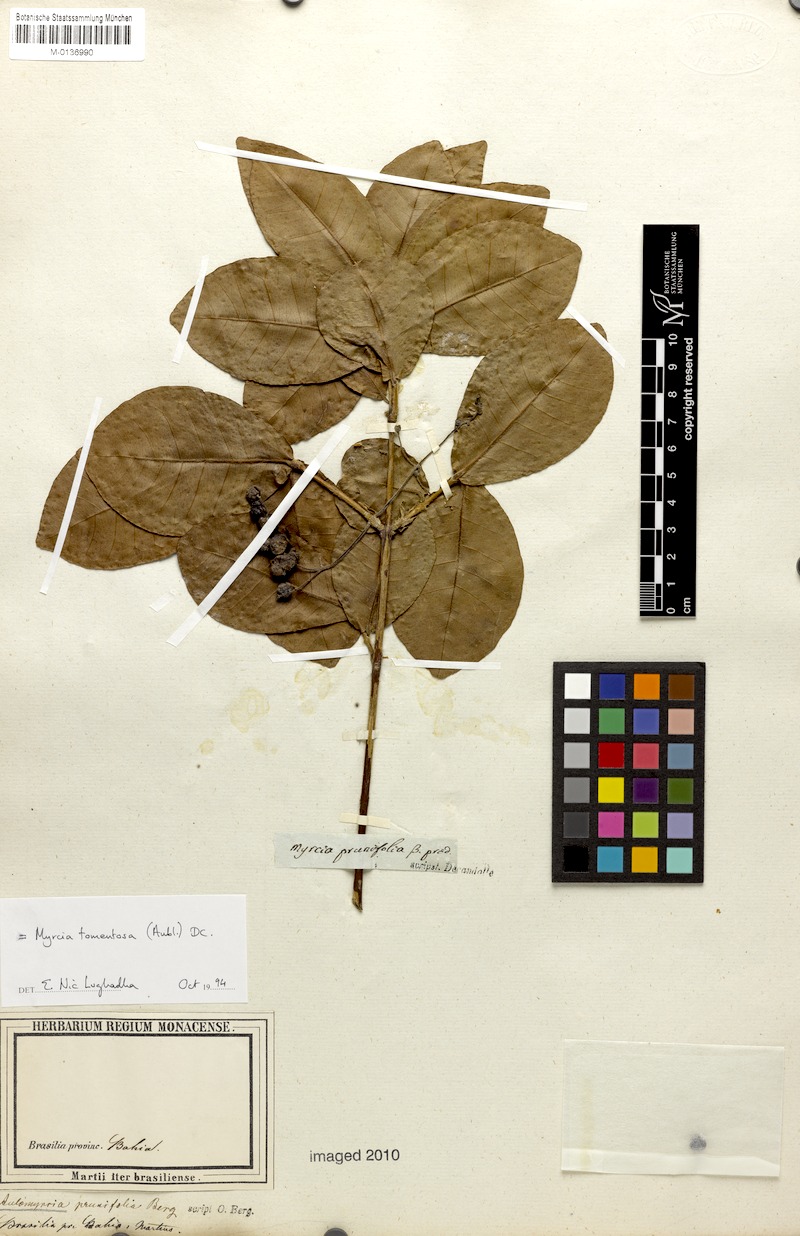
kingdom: Plantae
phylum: Tracheophyta
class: Magnoliopsida
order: Myrtales
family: Myrtaceae
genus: Myrcia
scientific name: Myrcia tomentosa
